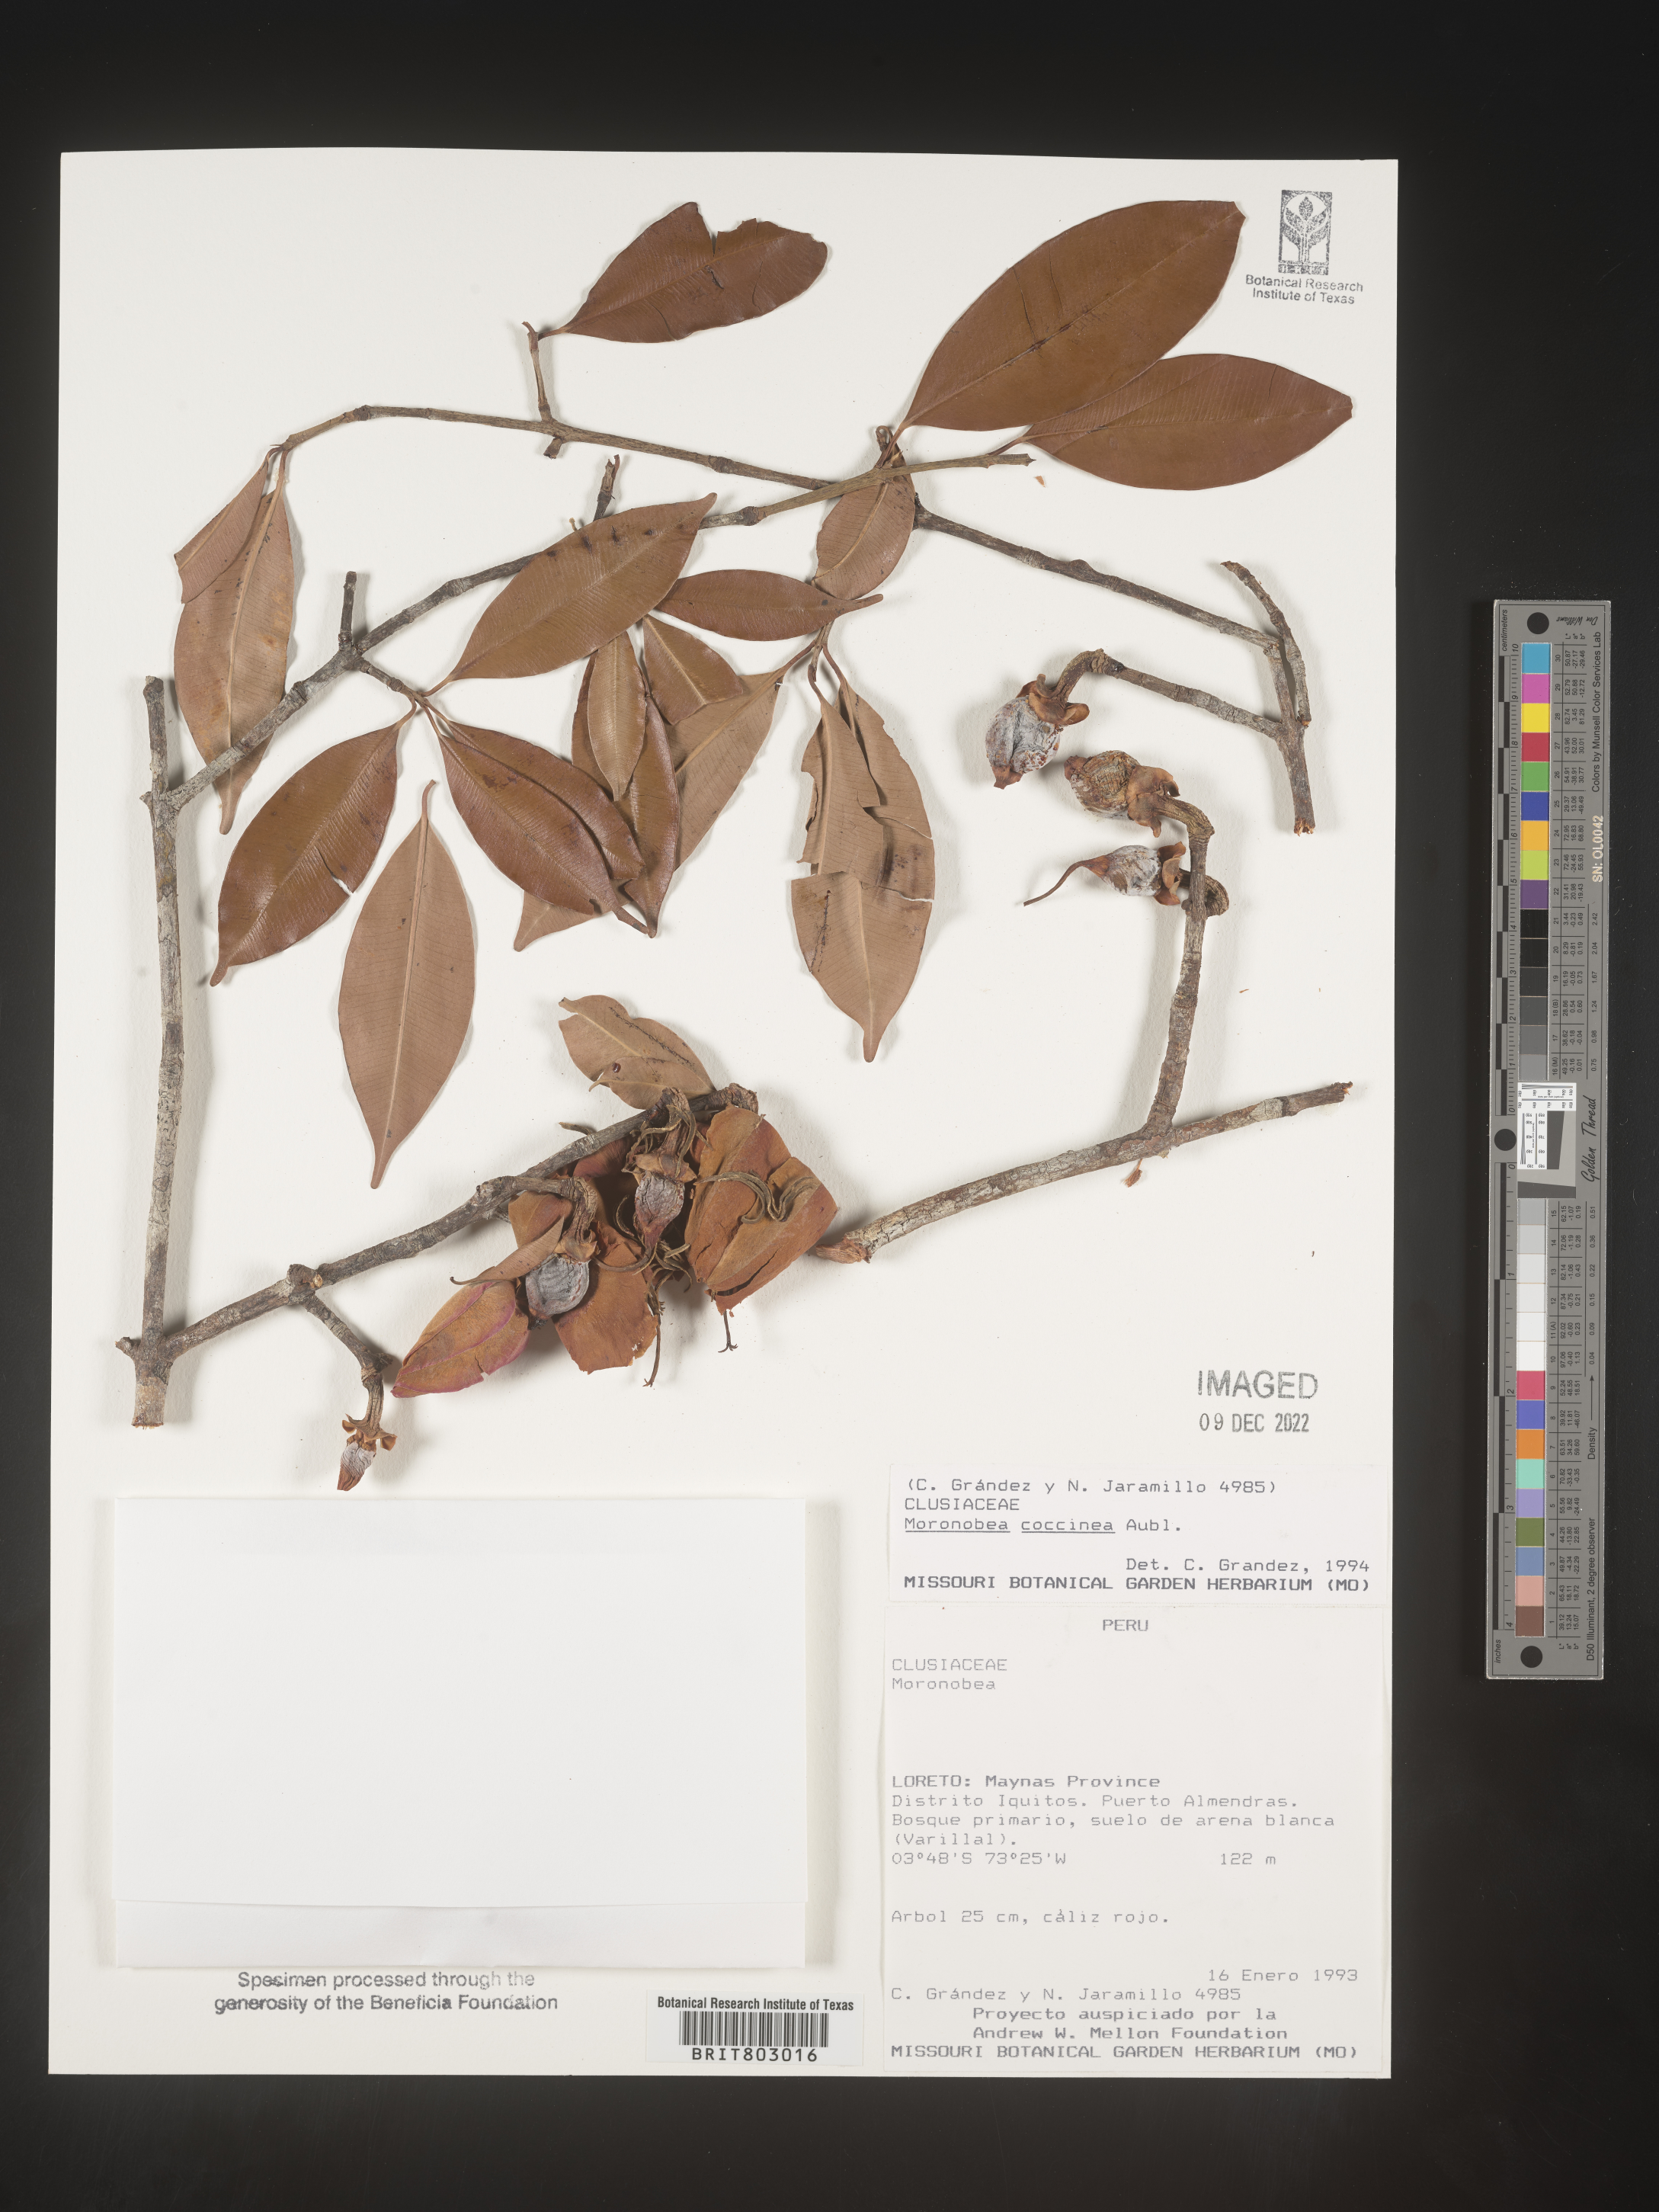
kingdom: Plantae
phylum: Tracheophyta
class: Magnoliopsida
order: Malpighiales
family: Clusiaceae
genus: Moronobea
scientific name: Moronobea
